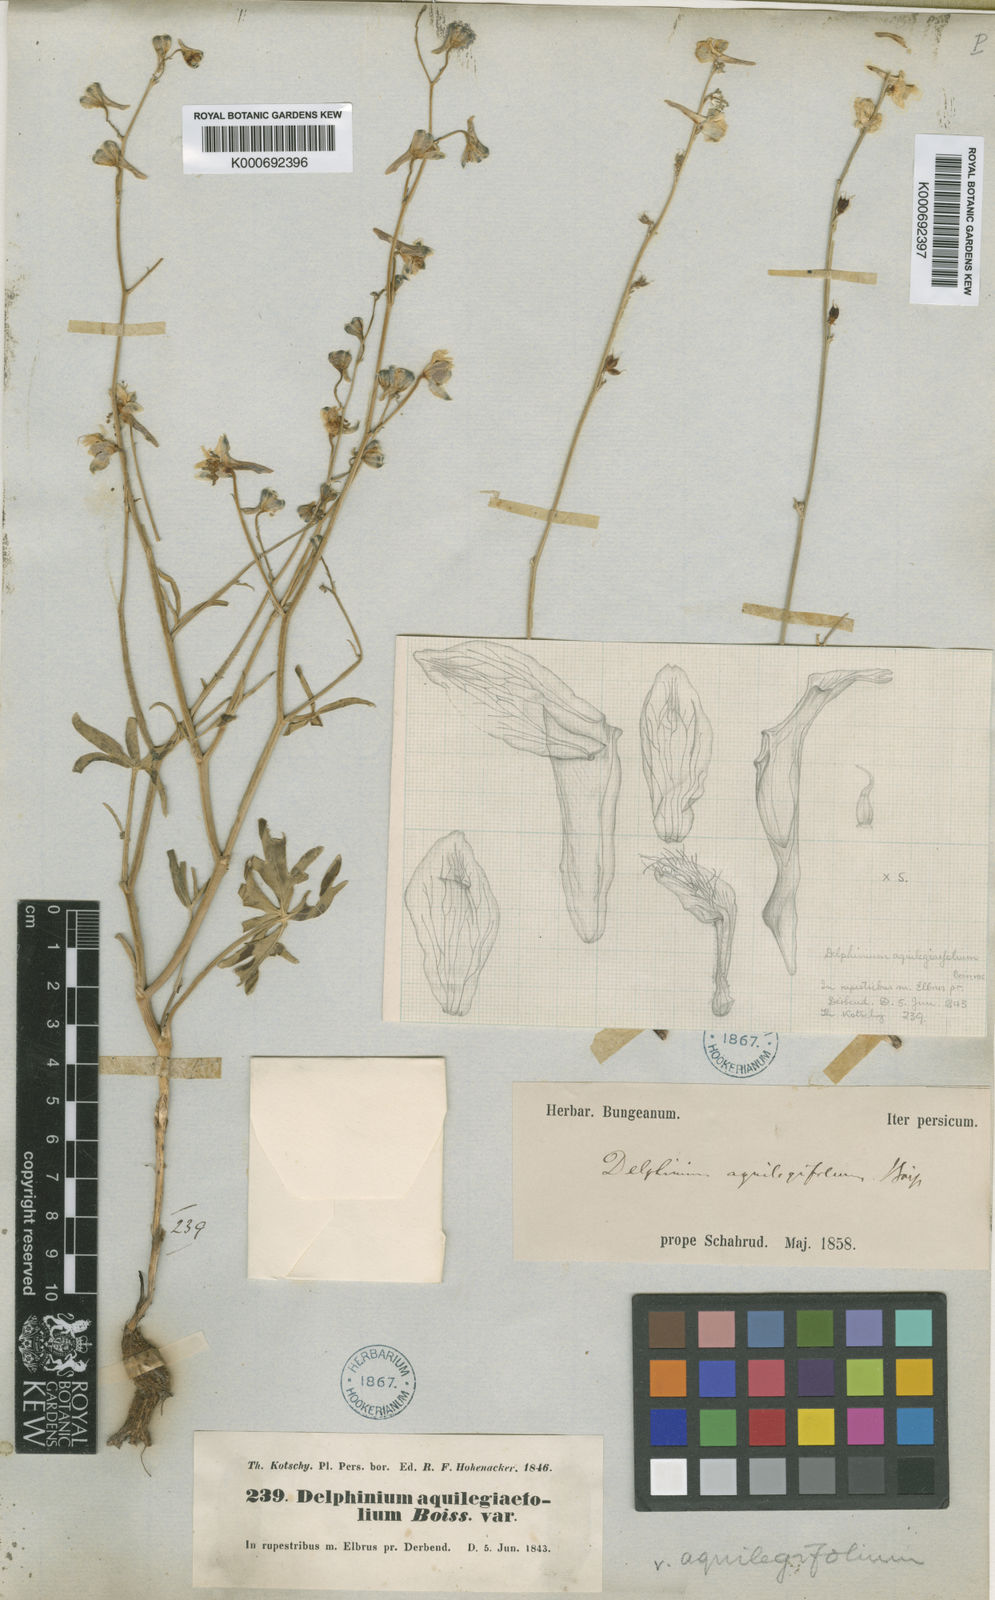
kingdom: Plantae
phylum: Tracheophyta
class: Magnoliopsida
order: Ranunculales
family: Ranunculaceae
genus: Delphinium
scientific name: Delphinium
